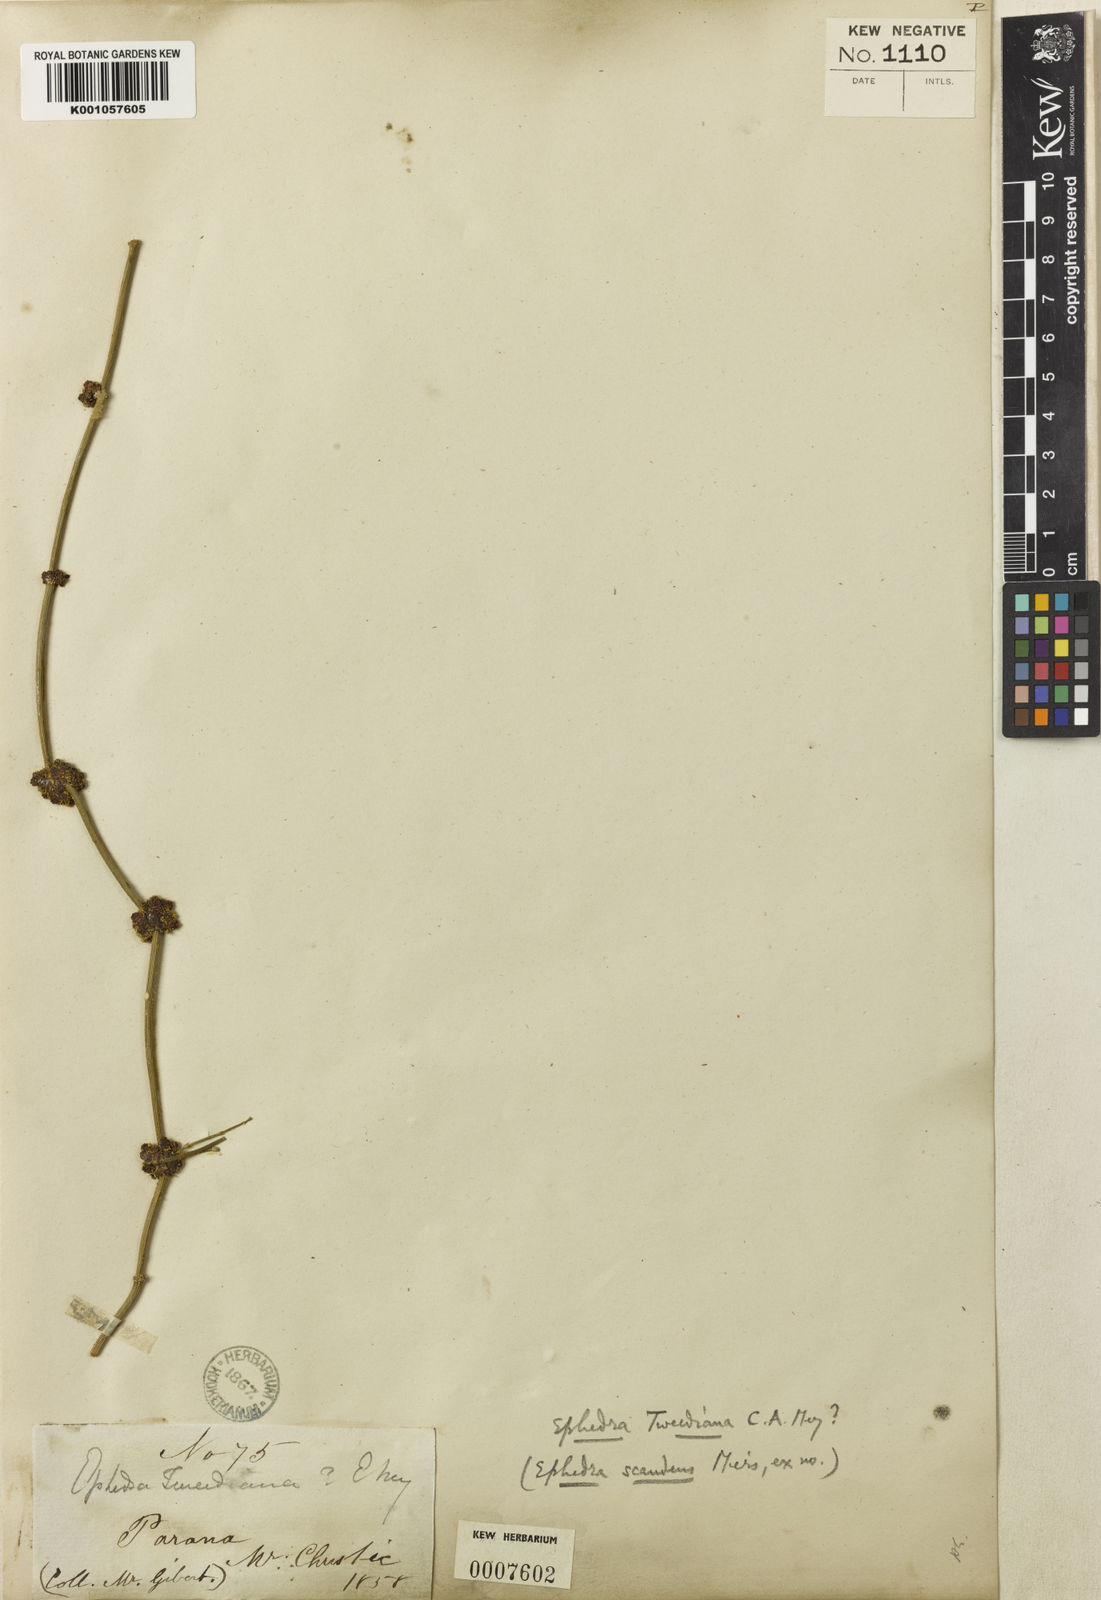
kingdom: Plantae
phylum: Tracheophyta
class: Gnetopsida
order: Ephedrales
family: Ephedraceae
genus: Ephedra
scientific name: Ephedra tweedieana
